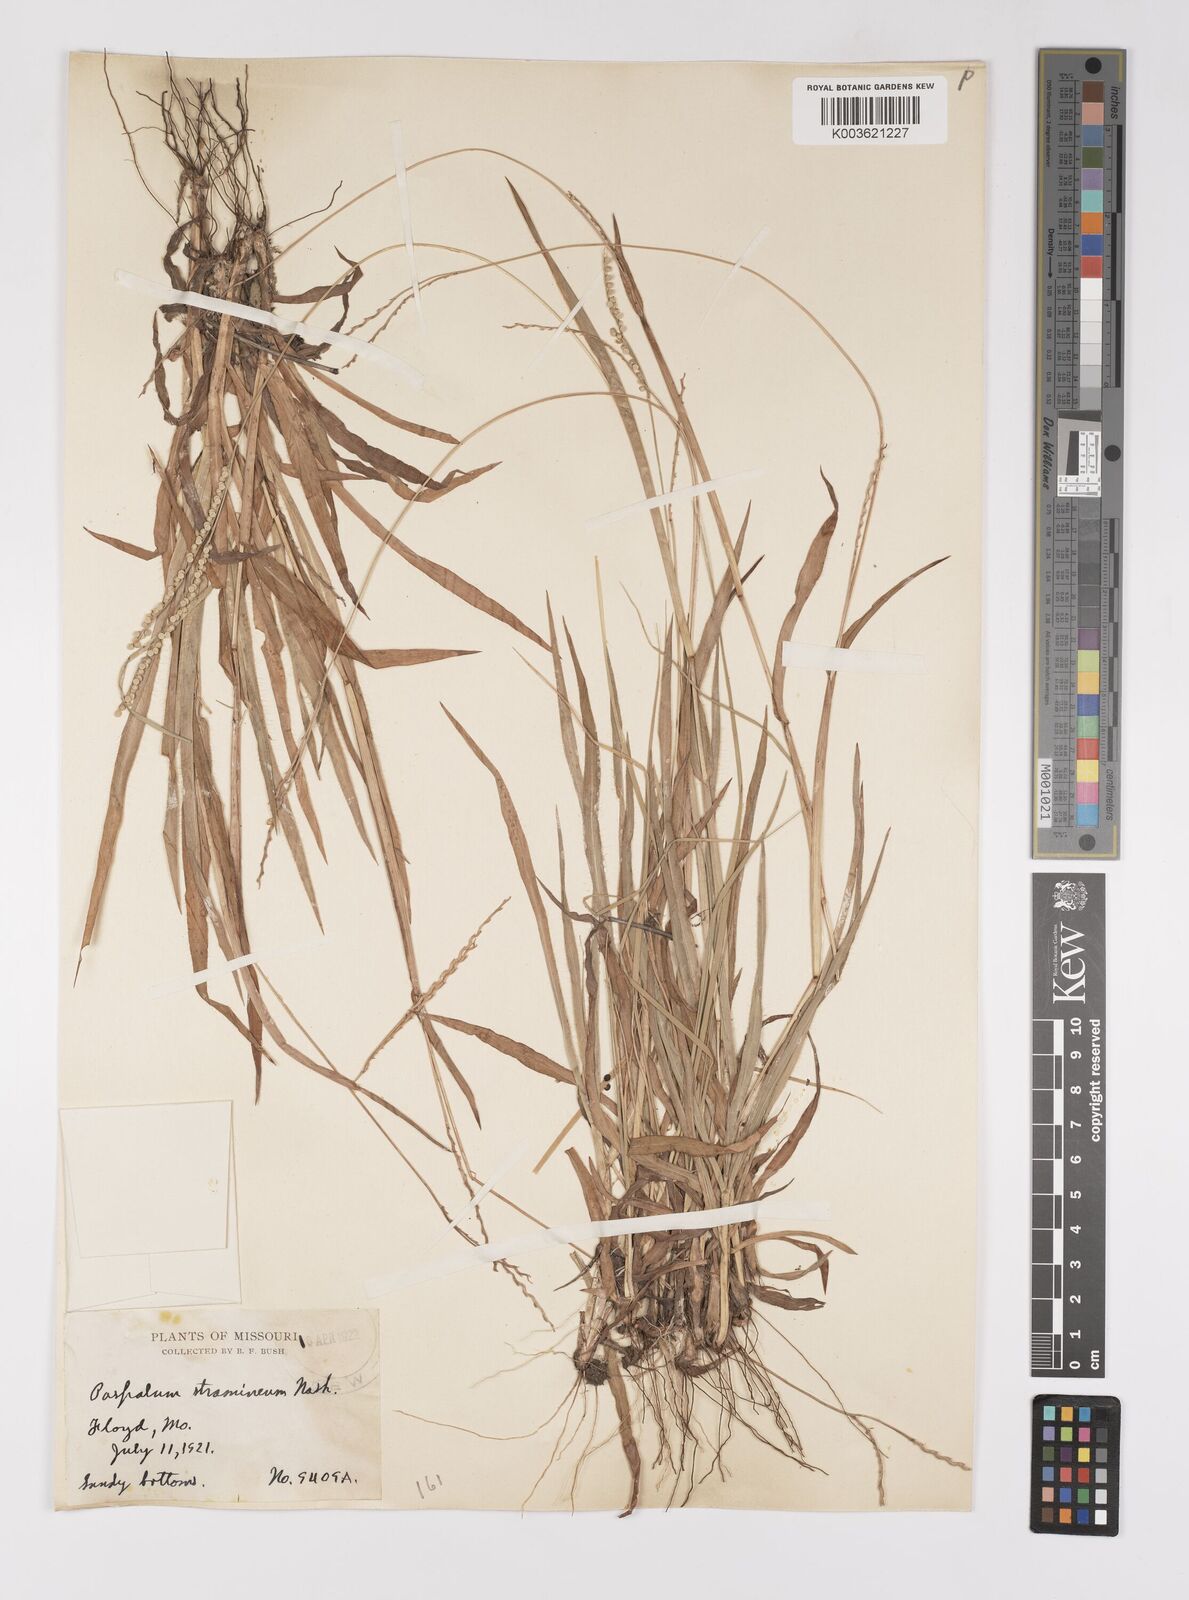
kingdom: Plantae
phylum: Tracheophyta
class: Liliopsida
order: Poales
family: Poaceae
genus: Paspalum
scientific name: Paspalum setaceum
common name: Slender paspalum
